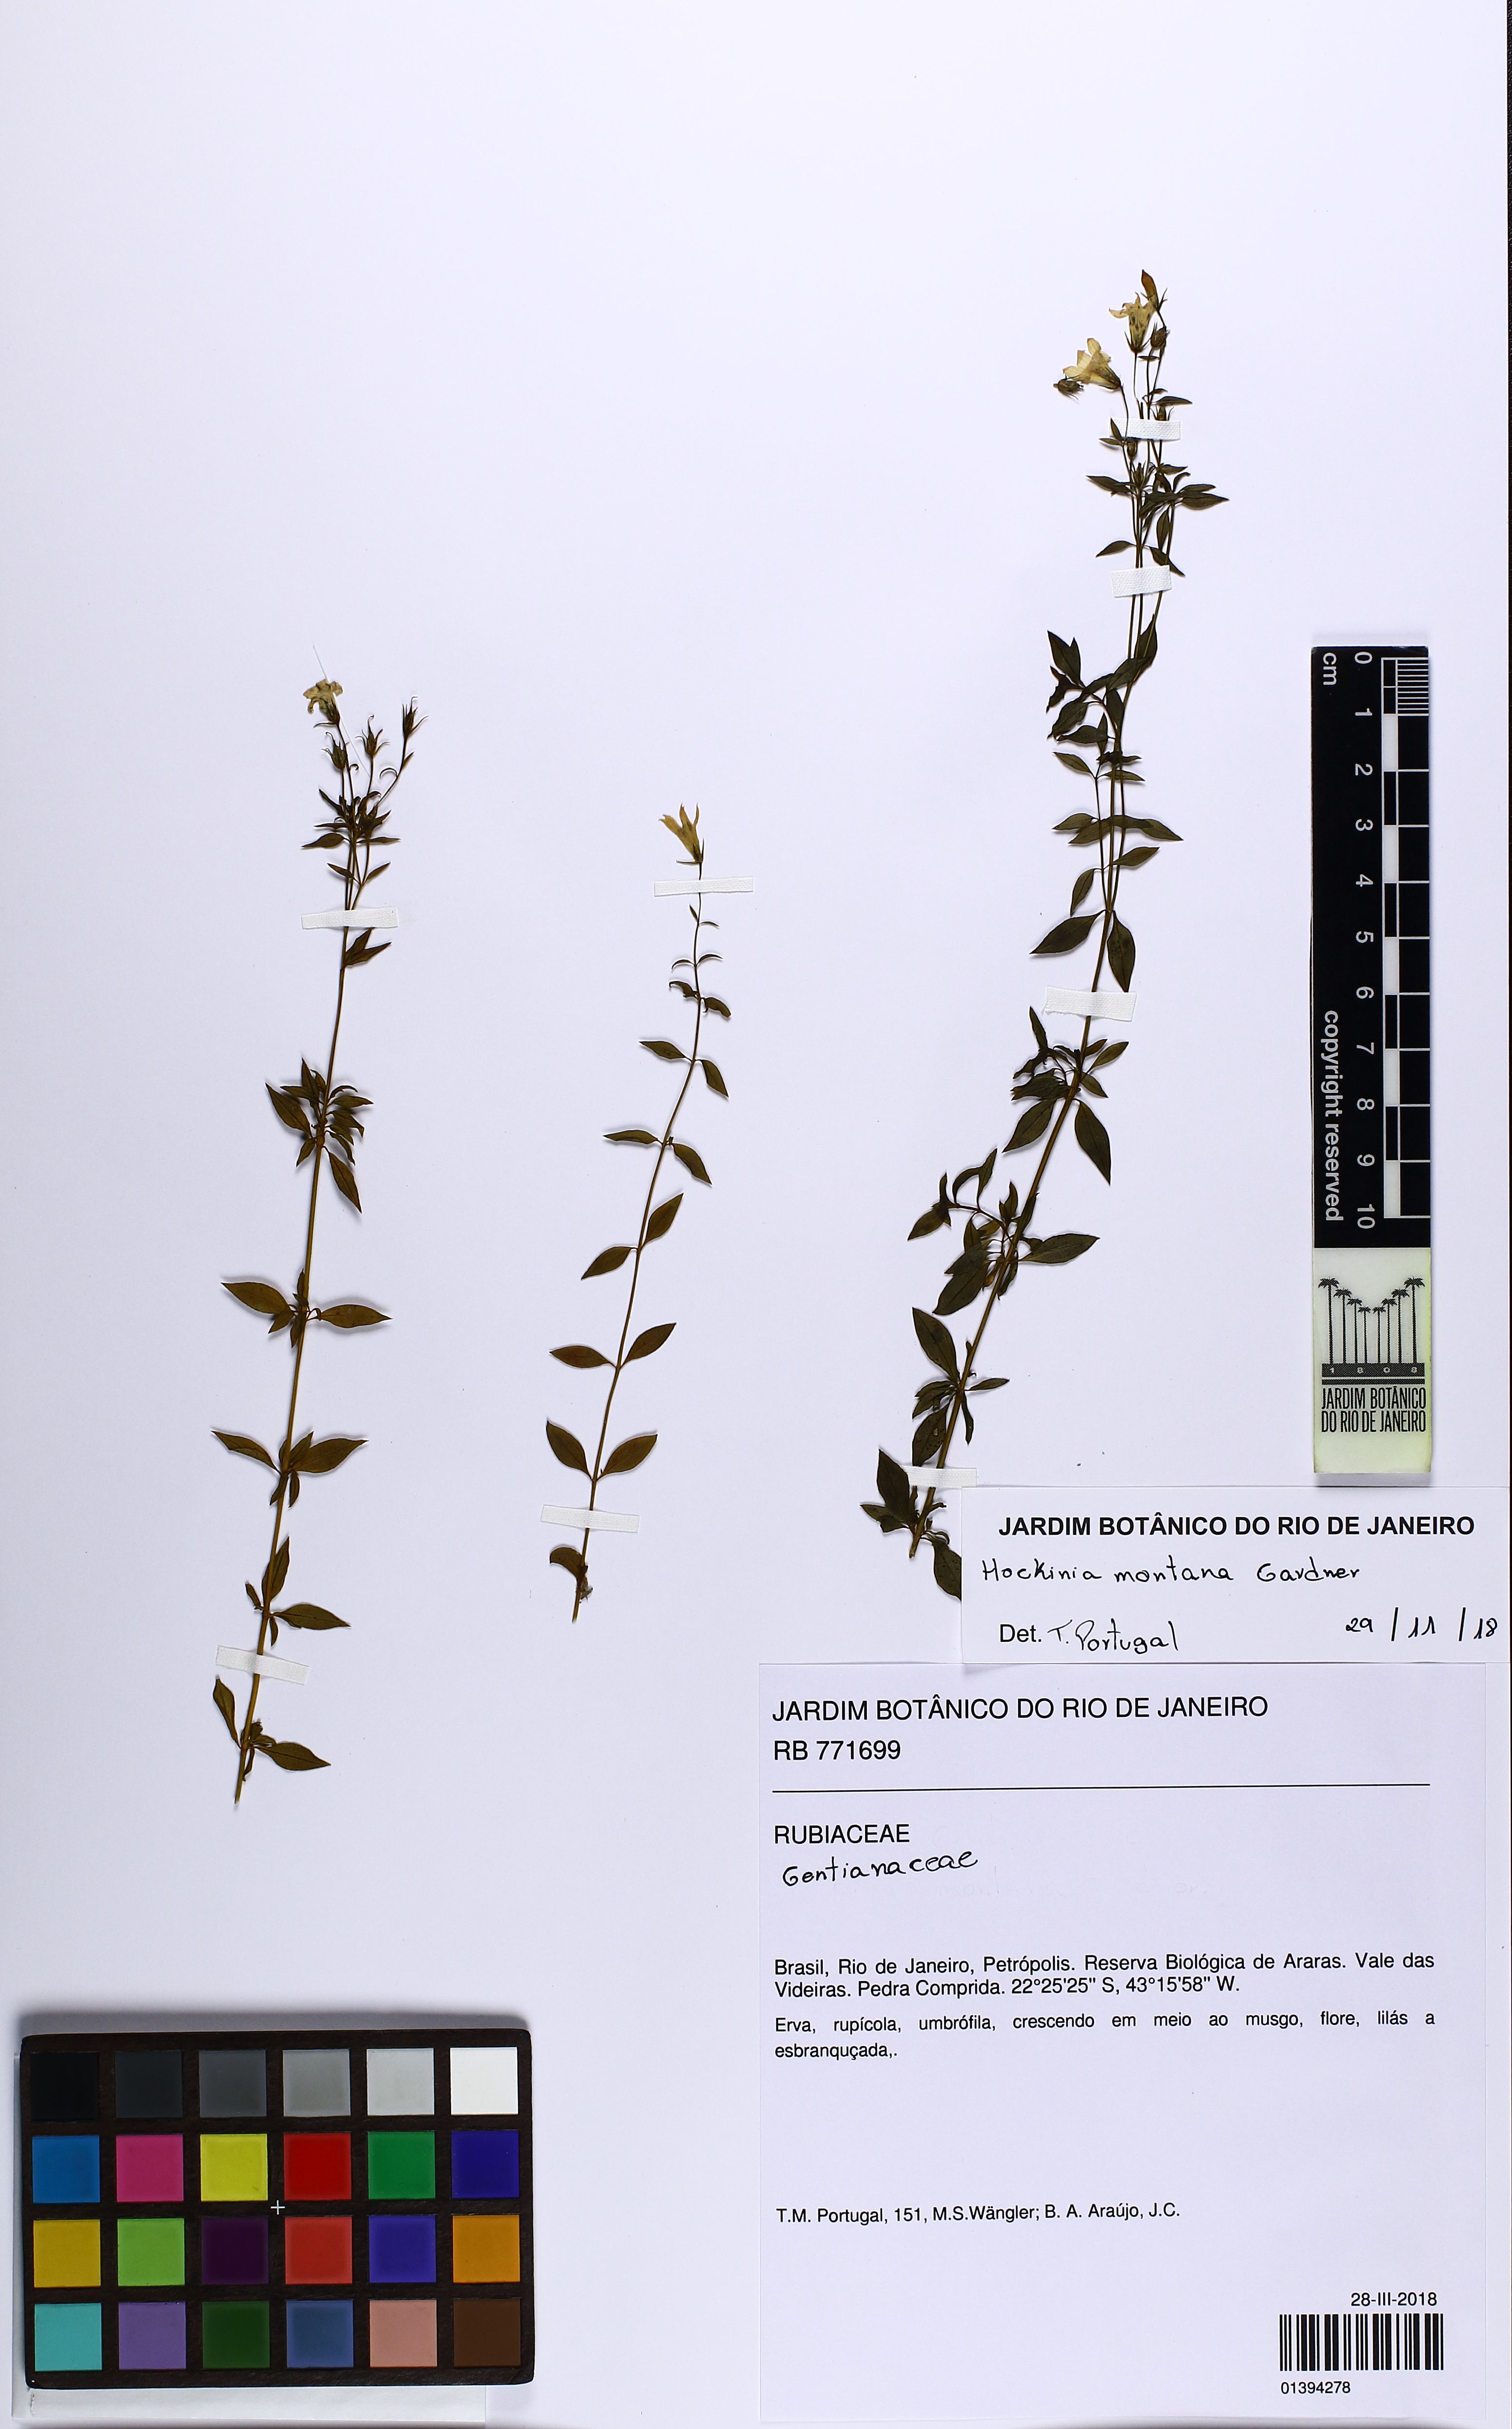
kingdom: Plantae
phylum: Tracheophyta
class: Magnoliopsida
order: Gentianales
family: Gentianaceae
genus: Hockinia
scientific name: Hockinia montana
